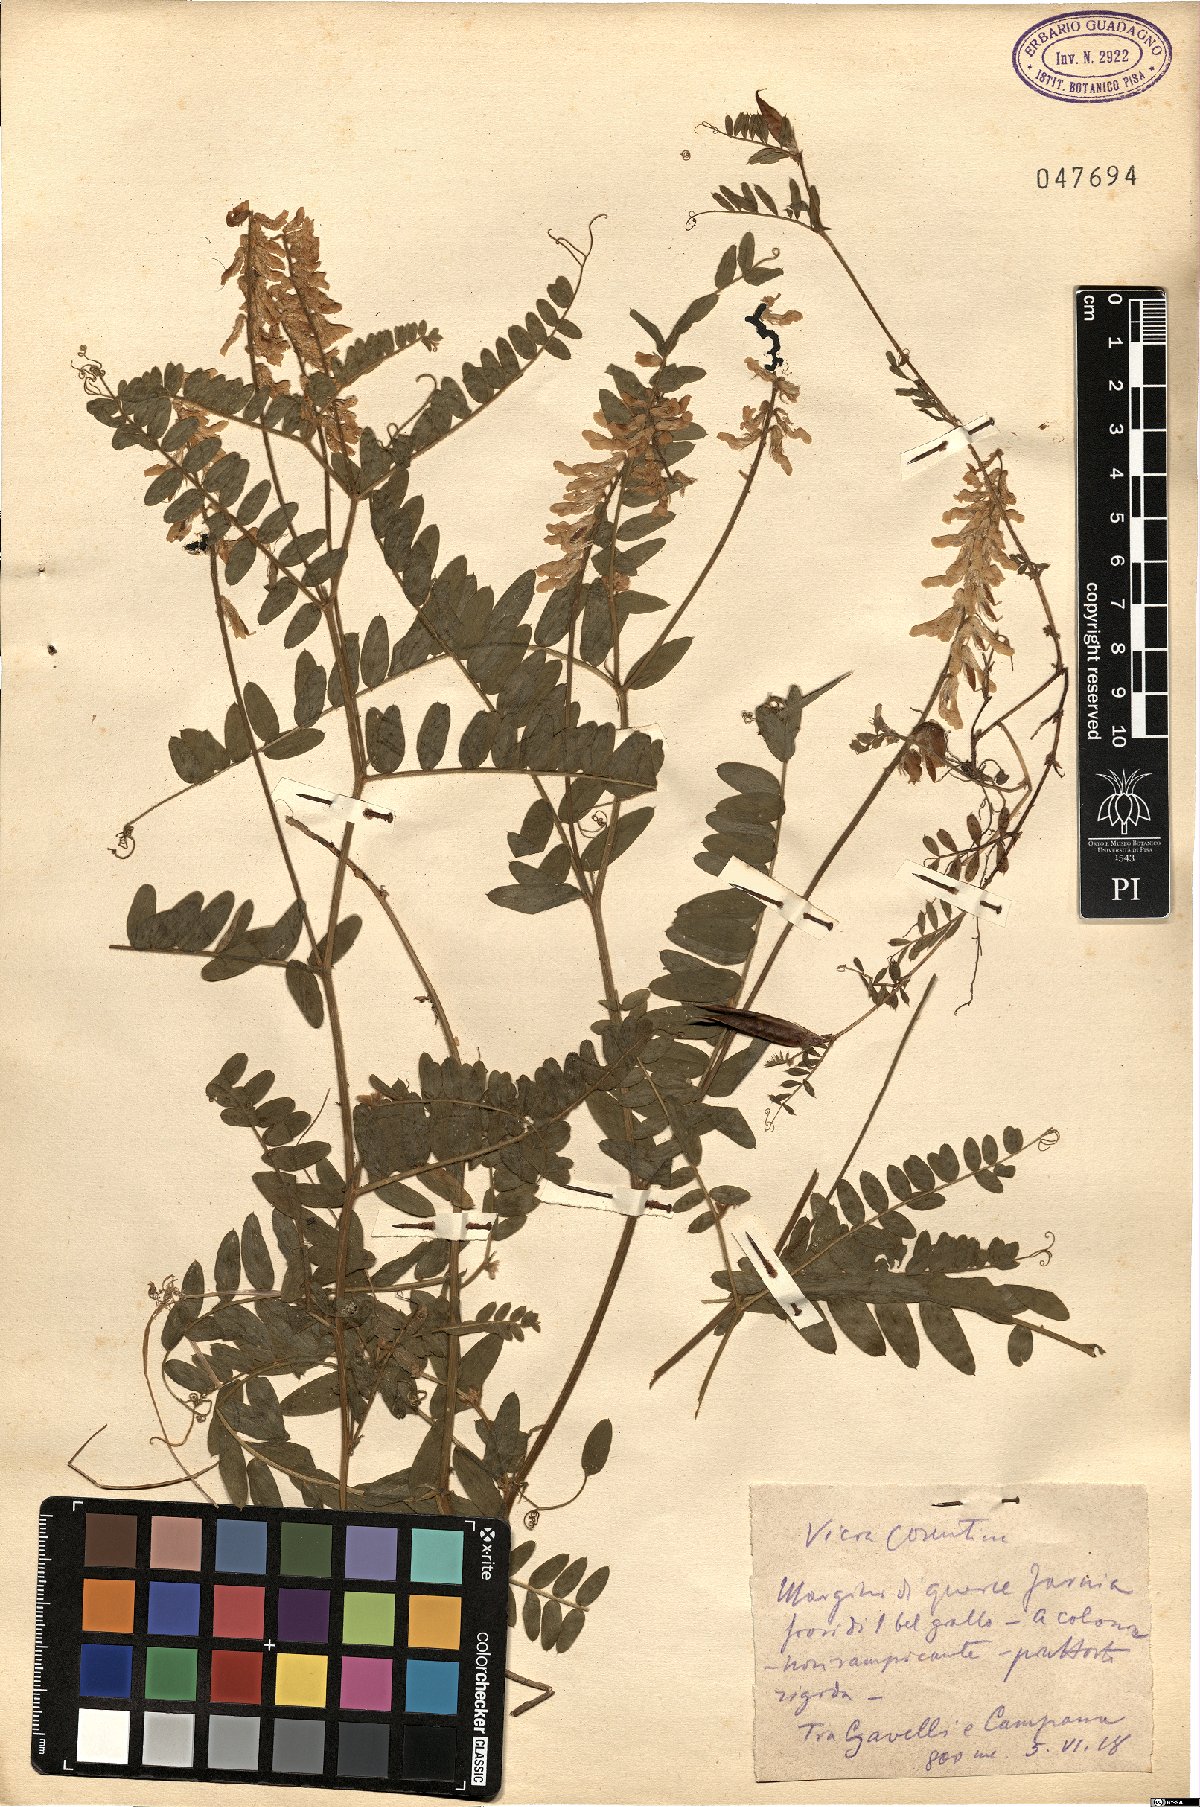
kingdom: Plantae
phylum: Tracheophyta
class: Magnoliopsida
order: Fabales
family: Fabaceae
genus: Vicia
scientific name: Vicia sativa
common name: Garden vetch
